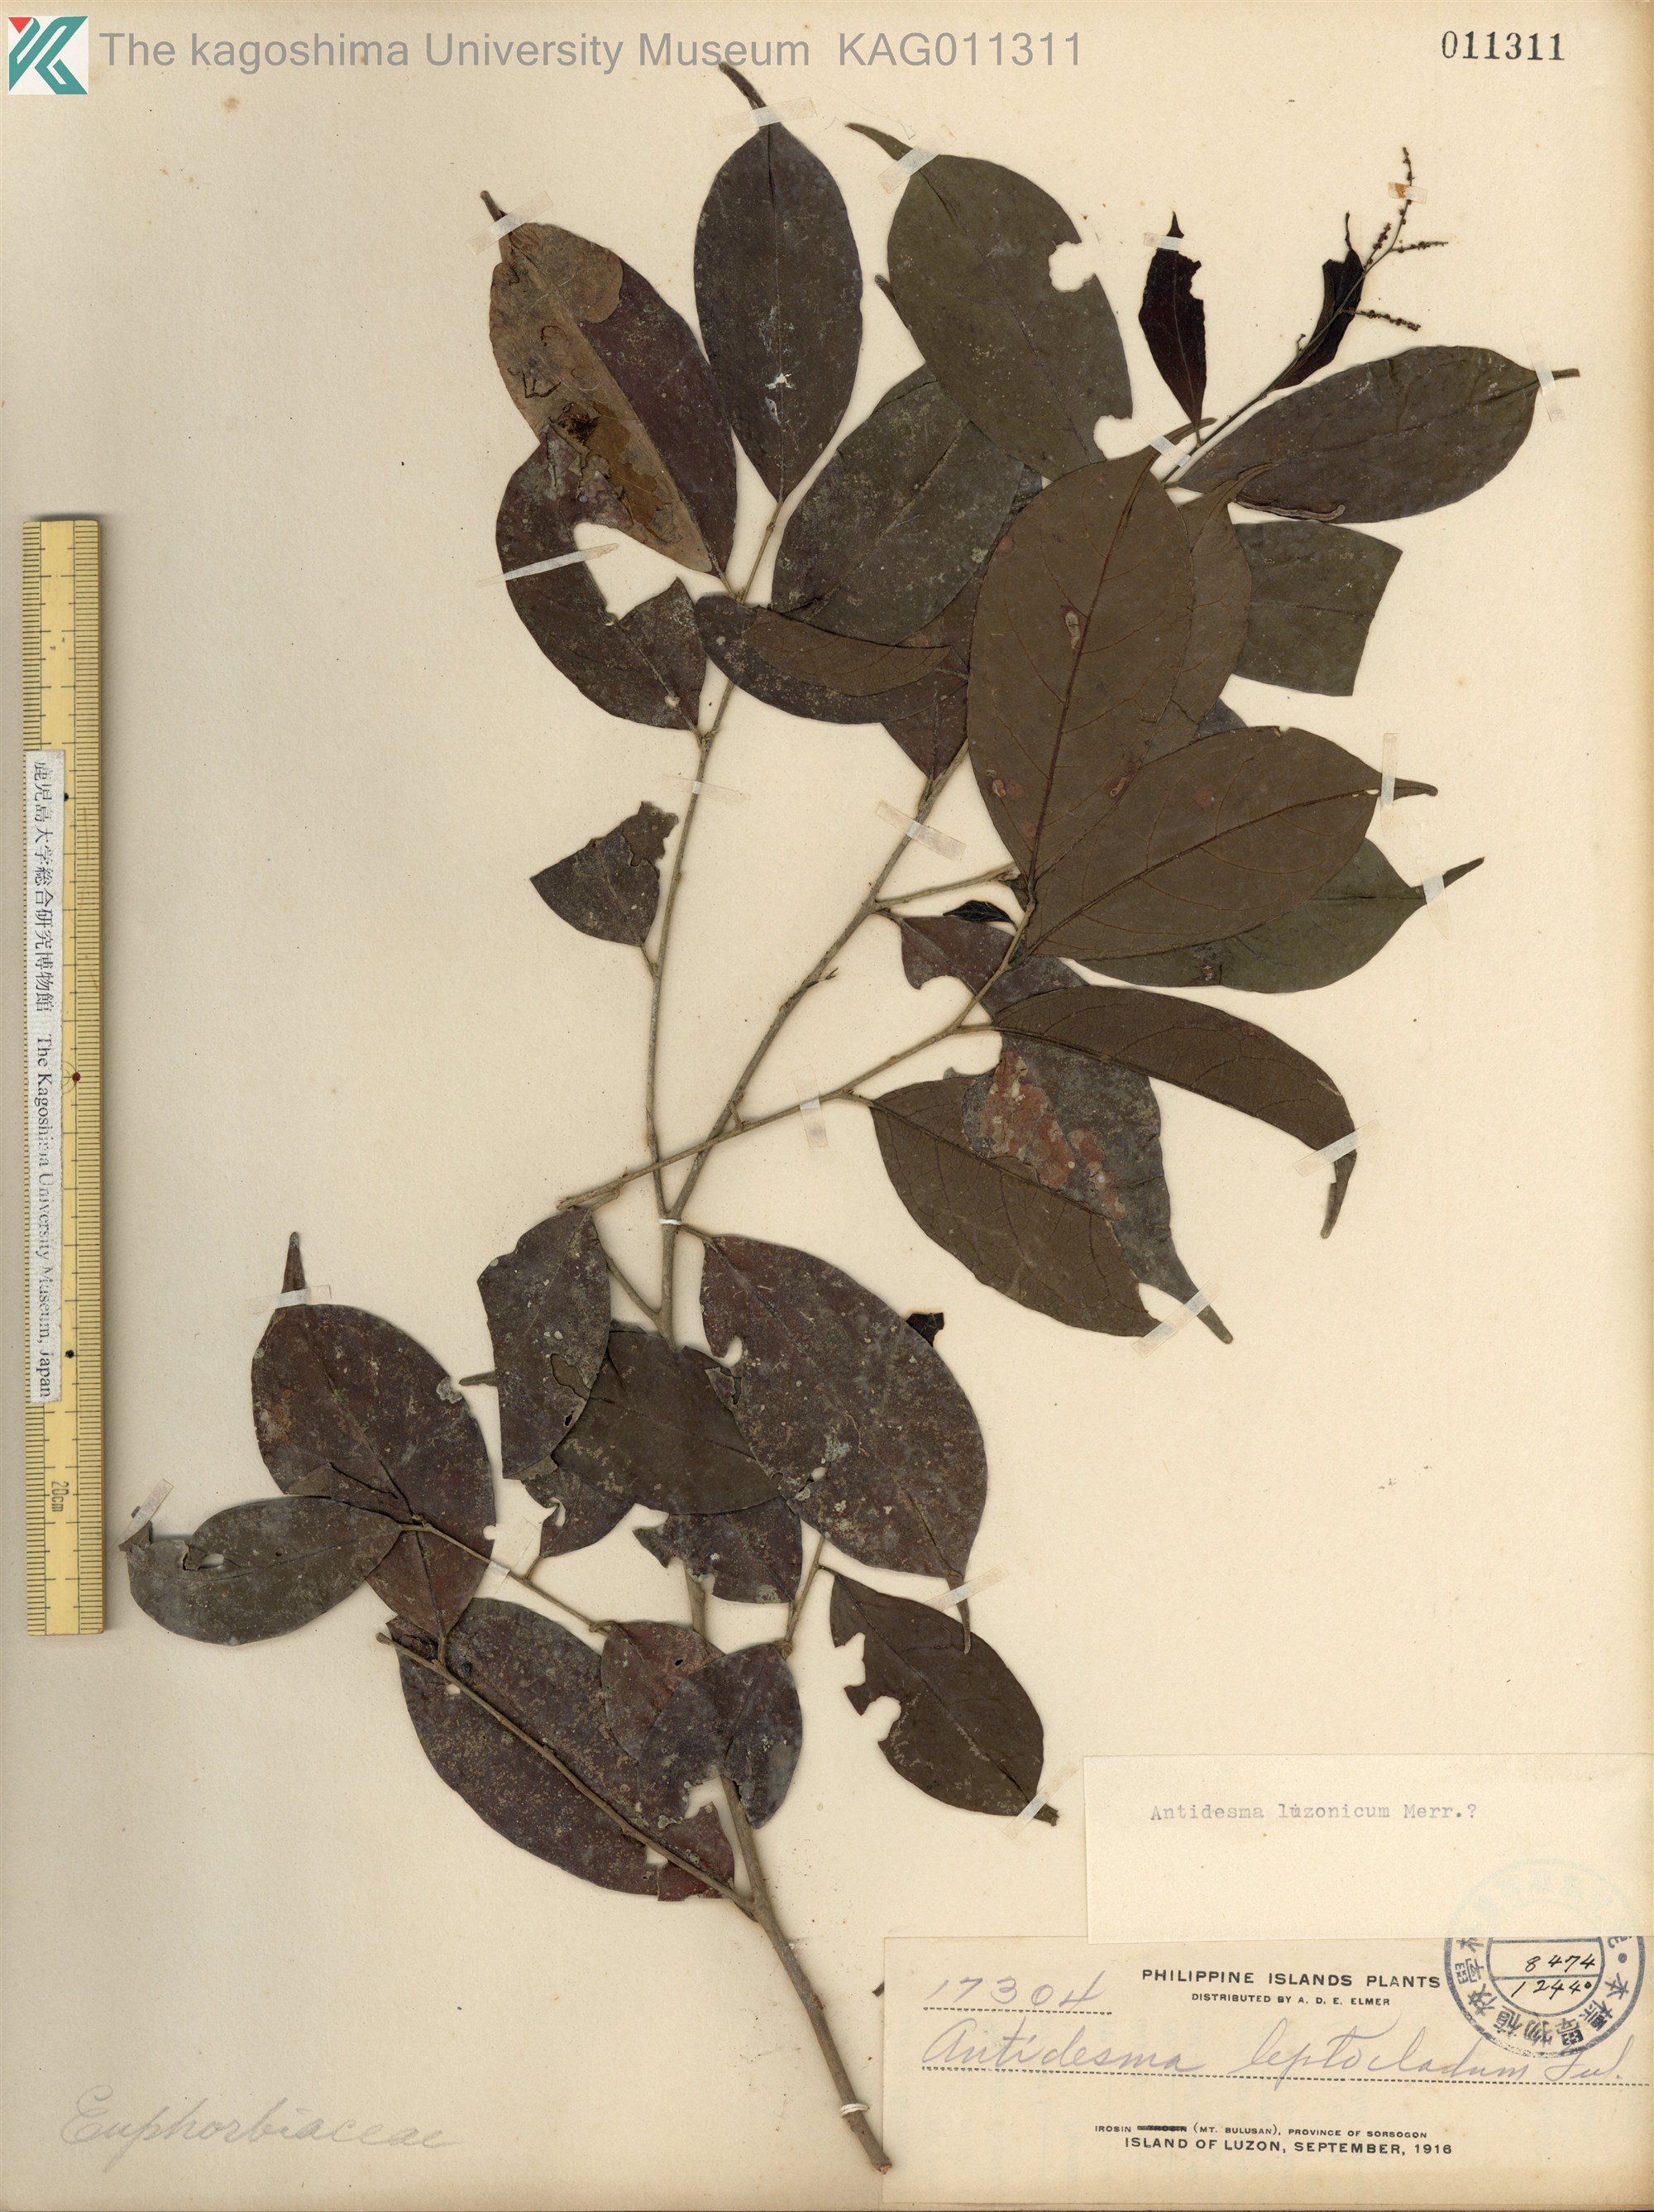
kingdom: Plantae
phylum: Tracheophyta
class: Magnoliopsida
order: Malpighiales
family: Phyllanthaceae
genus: Antidesma
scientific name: Antidesma digitaliforme
